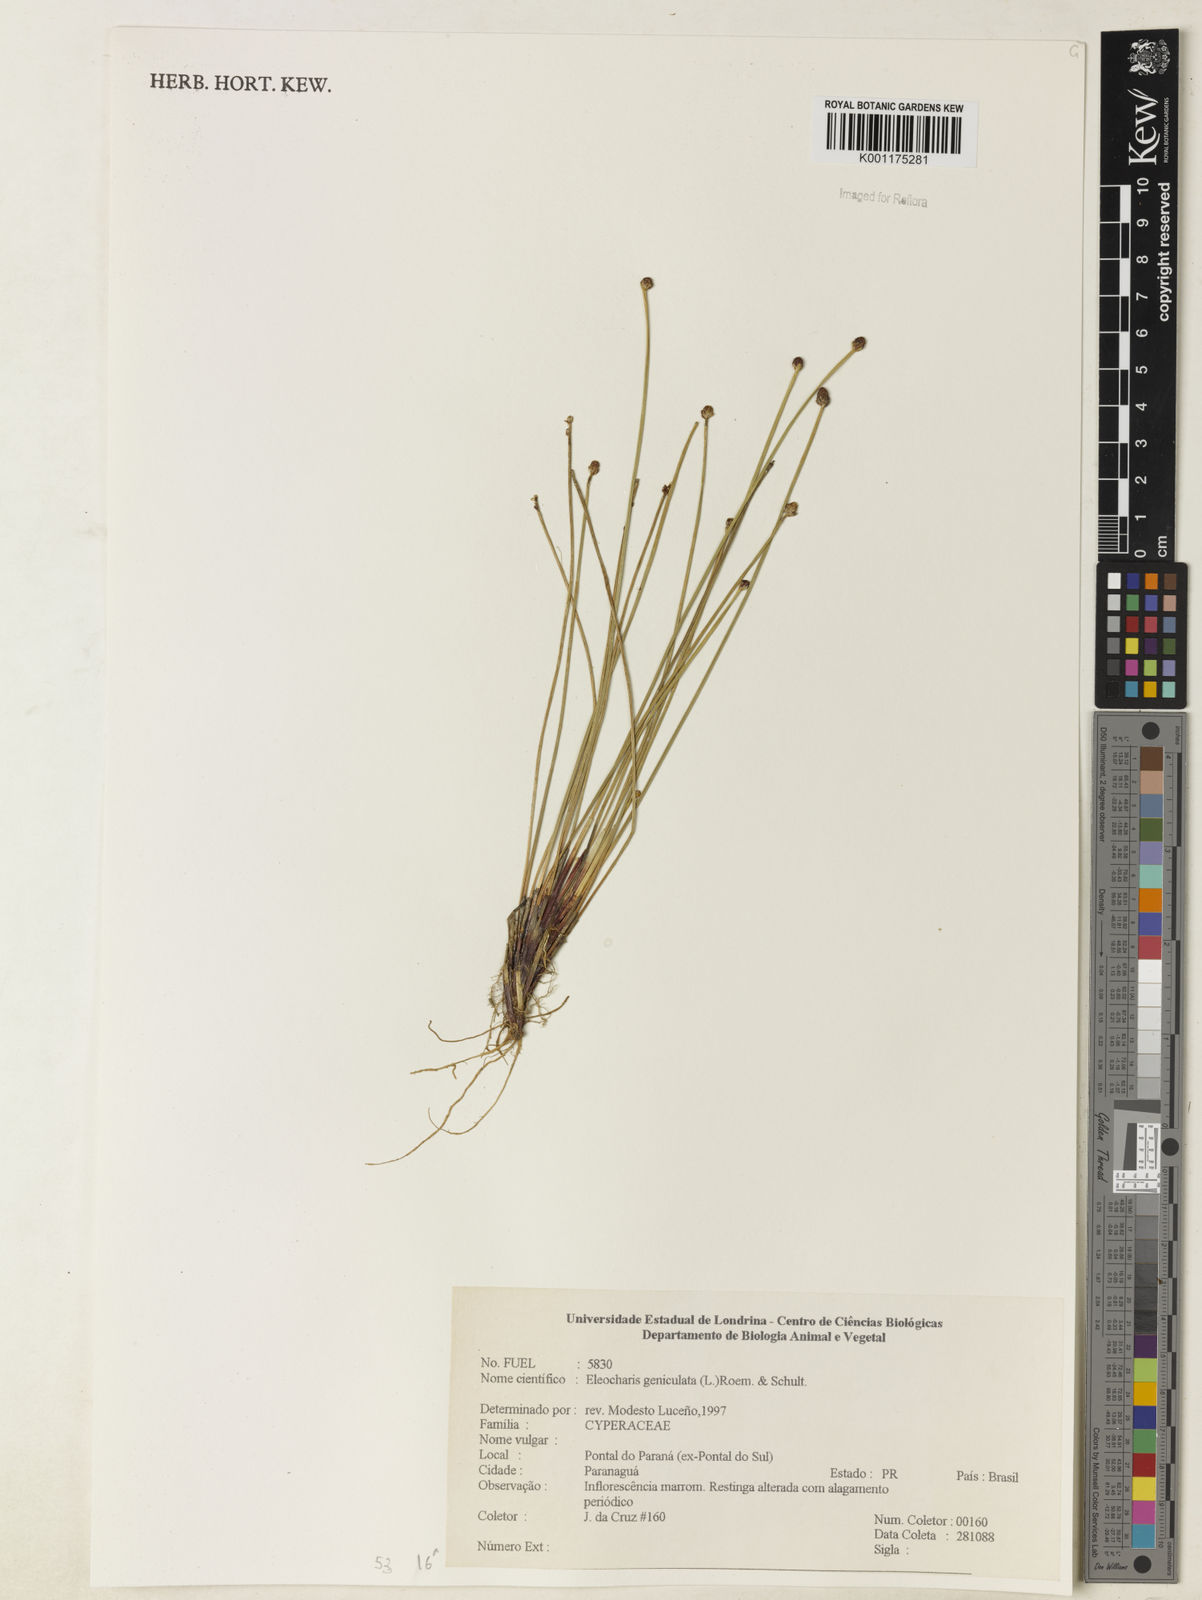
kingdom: Plantae
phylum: Tracheophyta
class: Liliopsida
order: Poales
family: Cyperaceae
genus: Eleocharis
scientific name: Eleocharis geniculata
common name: Canada spikesedge
